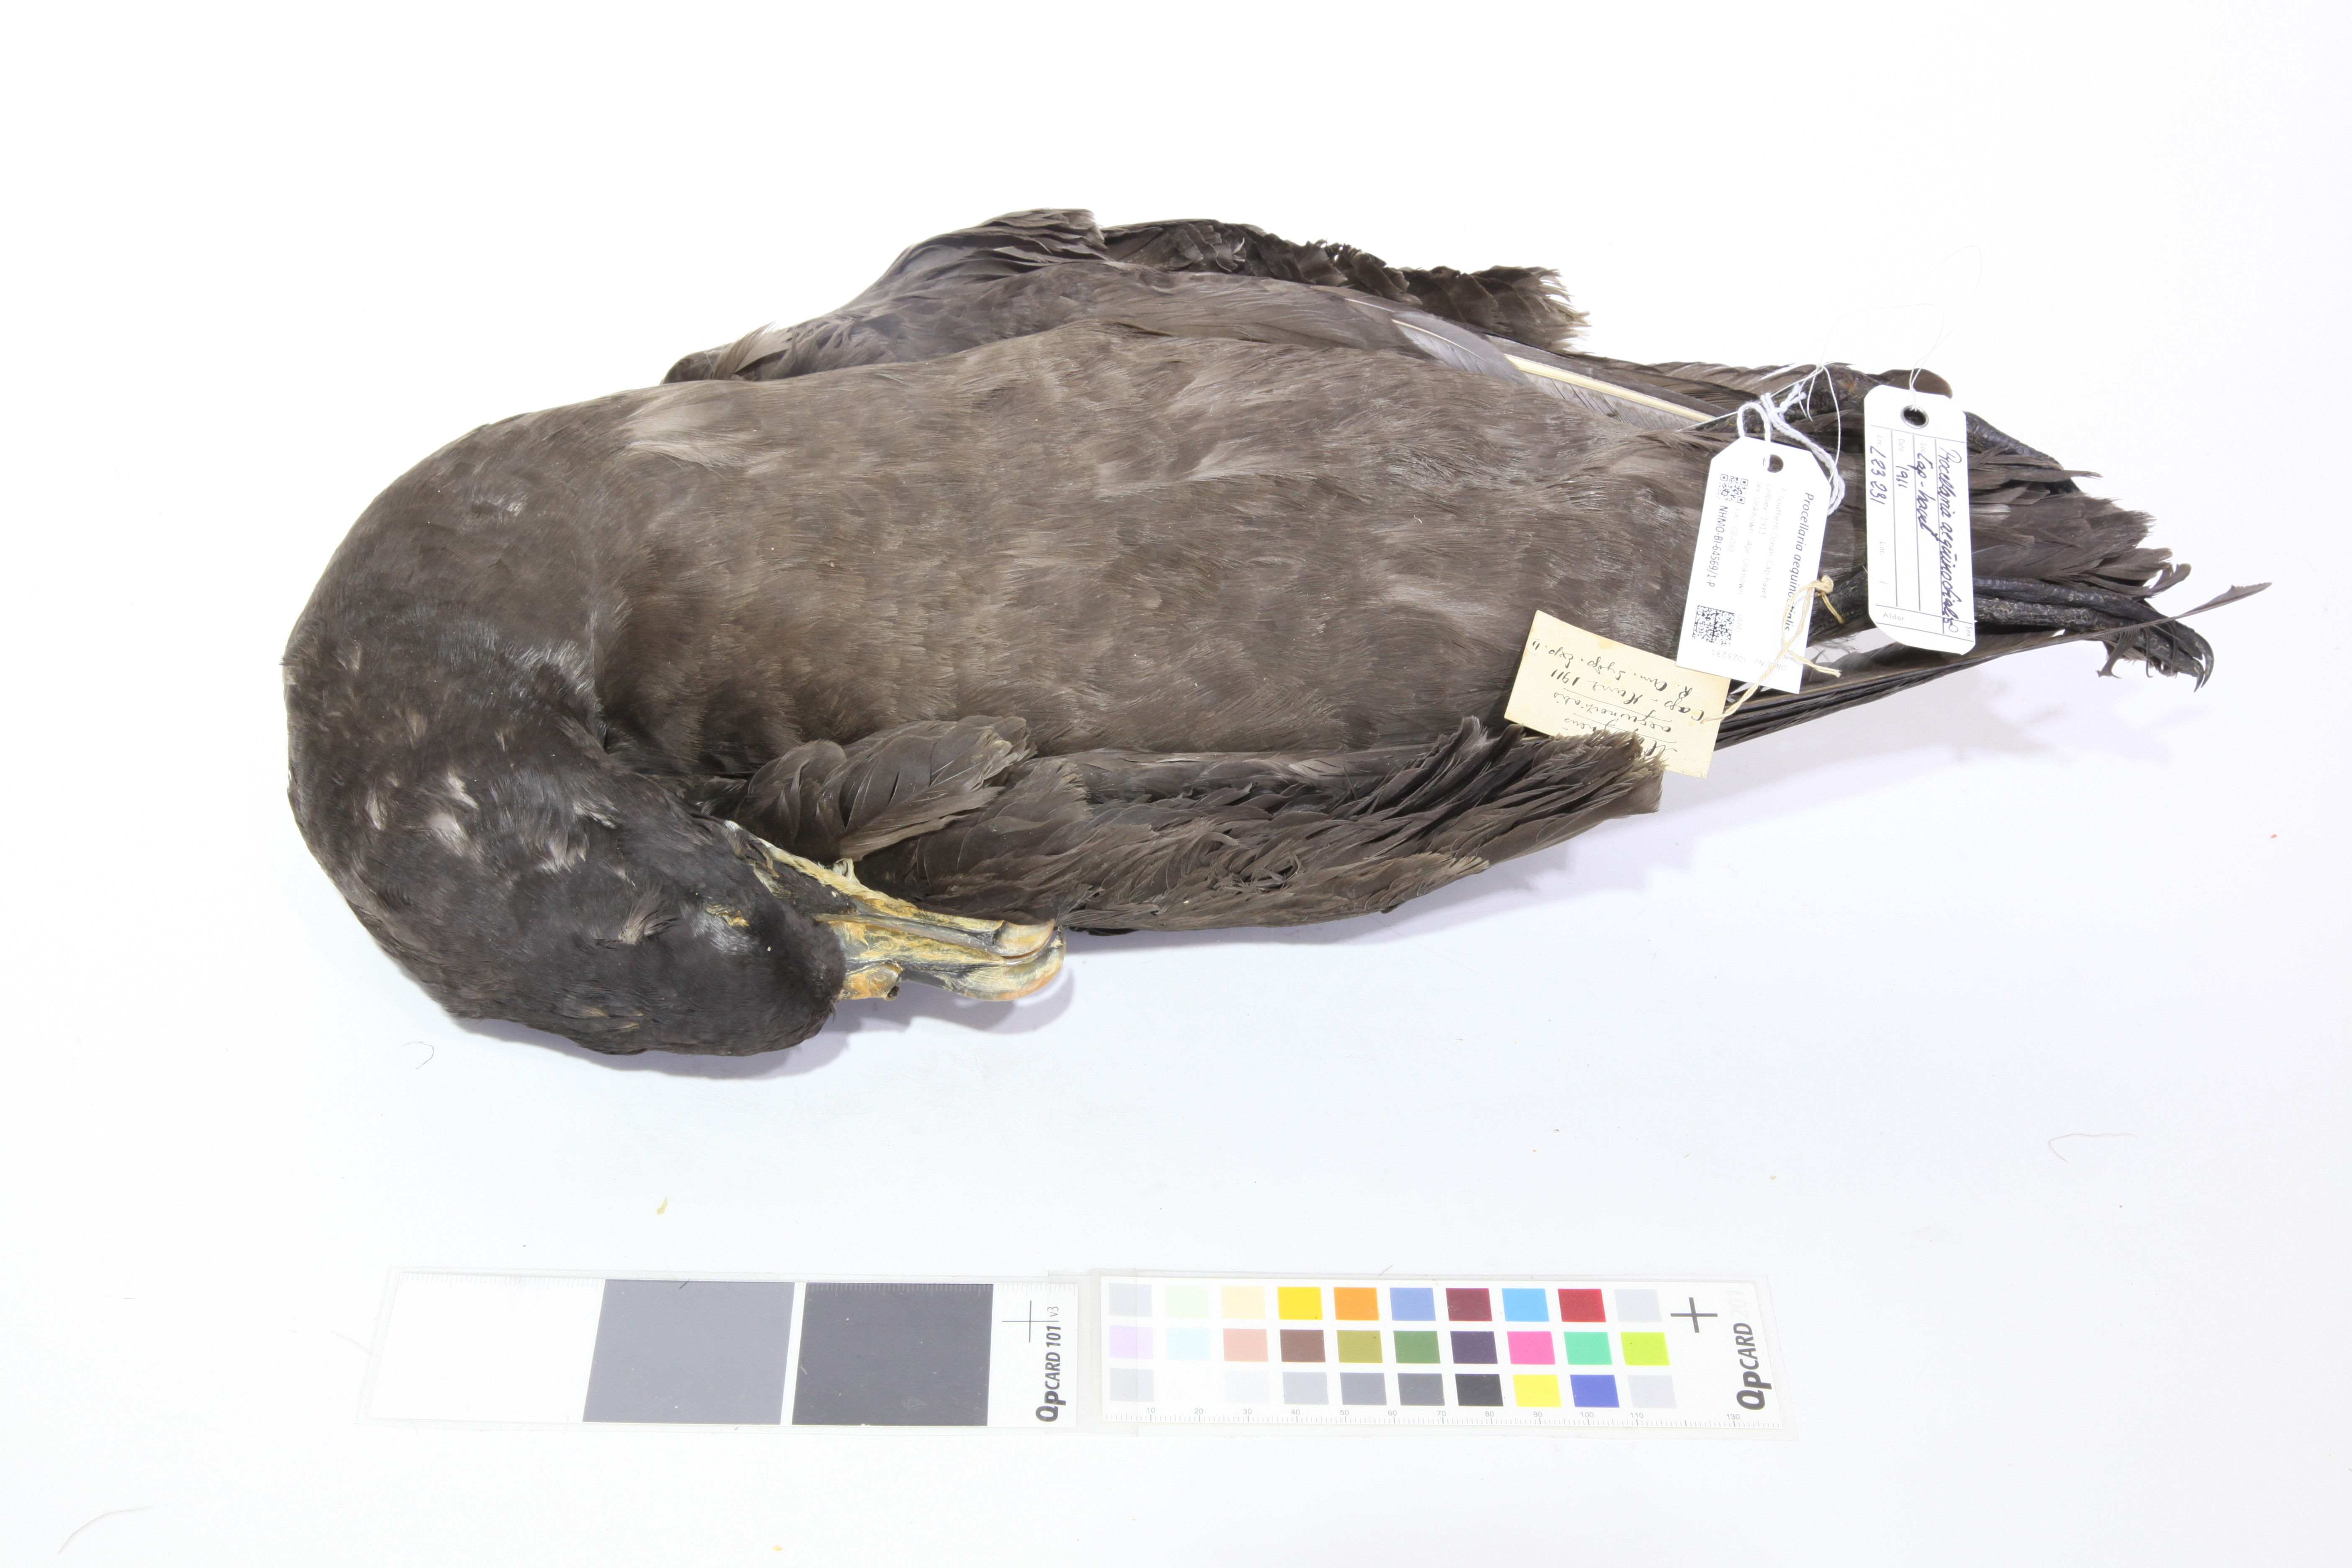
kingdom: Animalia
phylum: Chordata
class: Aves
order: Procellariiformes
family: Procellariidae
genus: Procellaria
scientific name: Procellaria aequinoctialis
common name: White-chinned petrel
